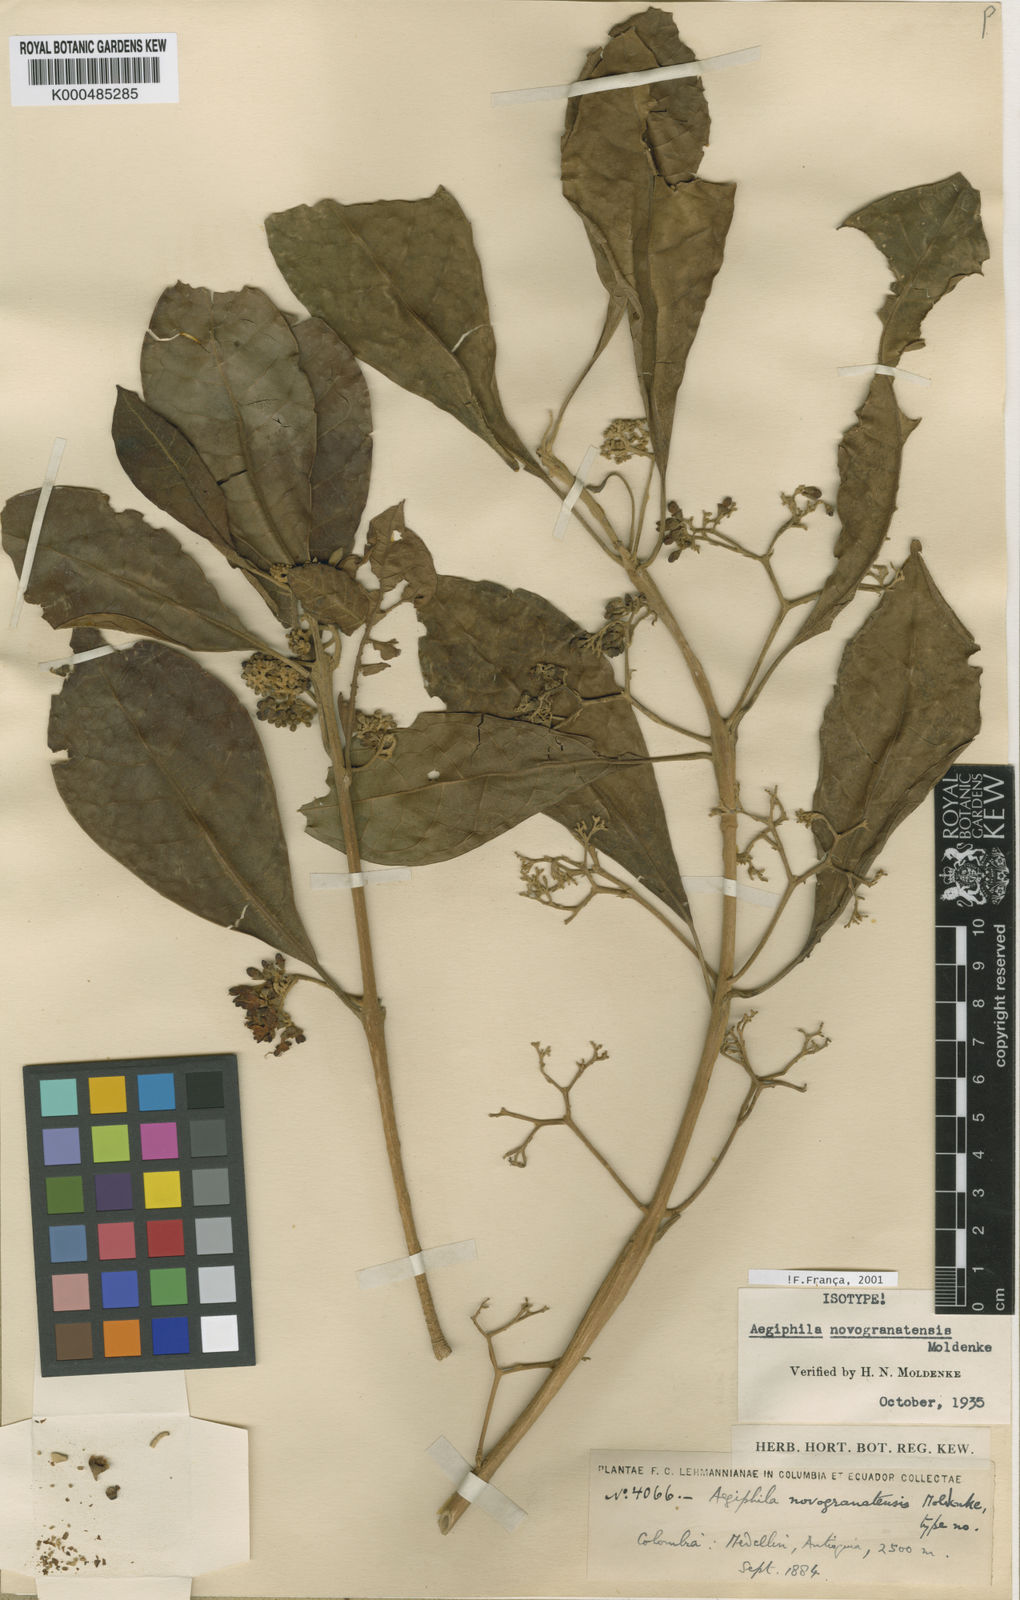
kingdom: Plantae
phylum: Tracheophyta
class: Magnoliopsida
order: Lamiales
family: Lamiaceae
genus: Aegiphila
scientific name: Aegiphila novogranatensis
